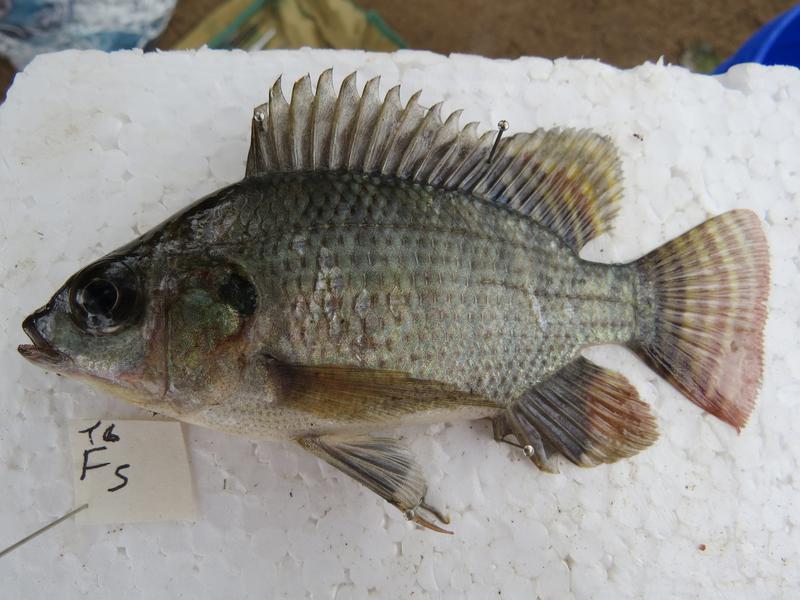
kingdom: Animalia
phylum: Chordata
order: Perciformes
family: Cichlidae
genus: Oreochromis
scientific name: Oreochromis niloticus
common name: Nile tilapia
